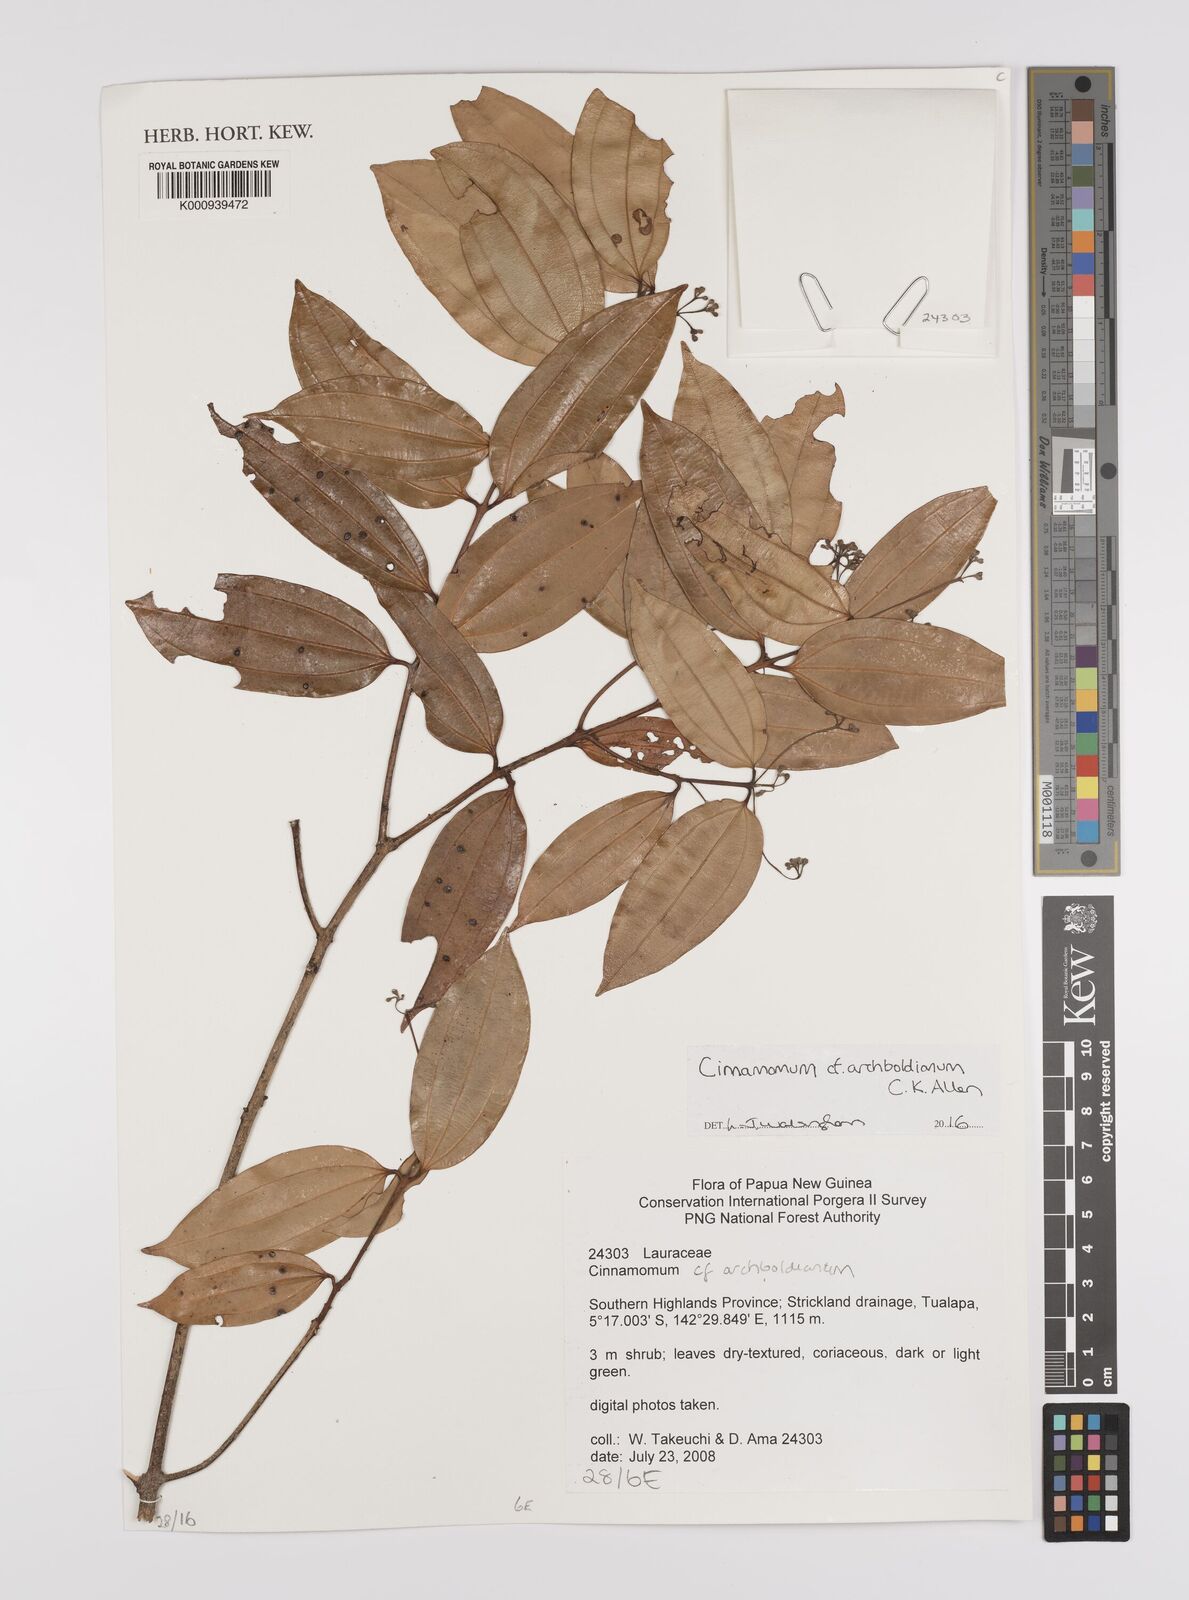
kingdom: Plantae
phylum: Tracheophyta
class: Magnoliopsida
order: Laurales
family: Lauraceae
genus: Cinnamomum
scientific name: Cinnamomum archboldianum
